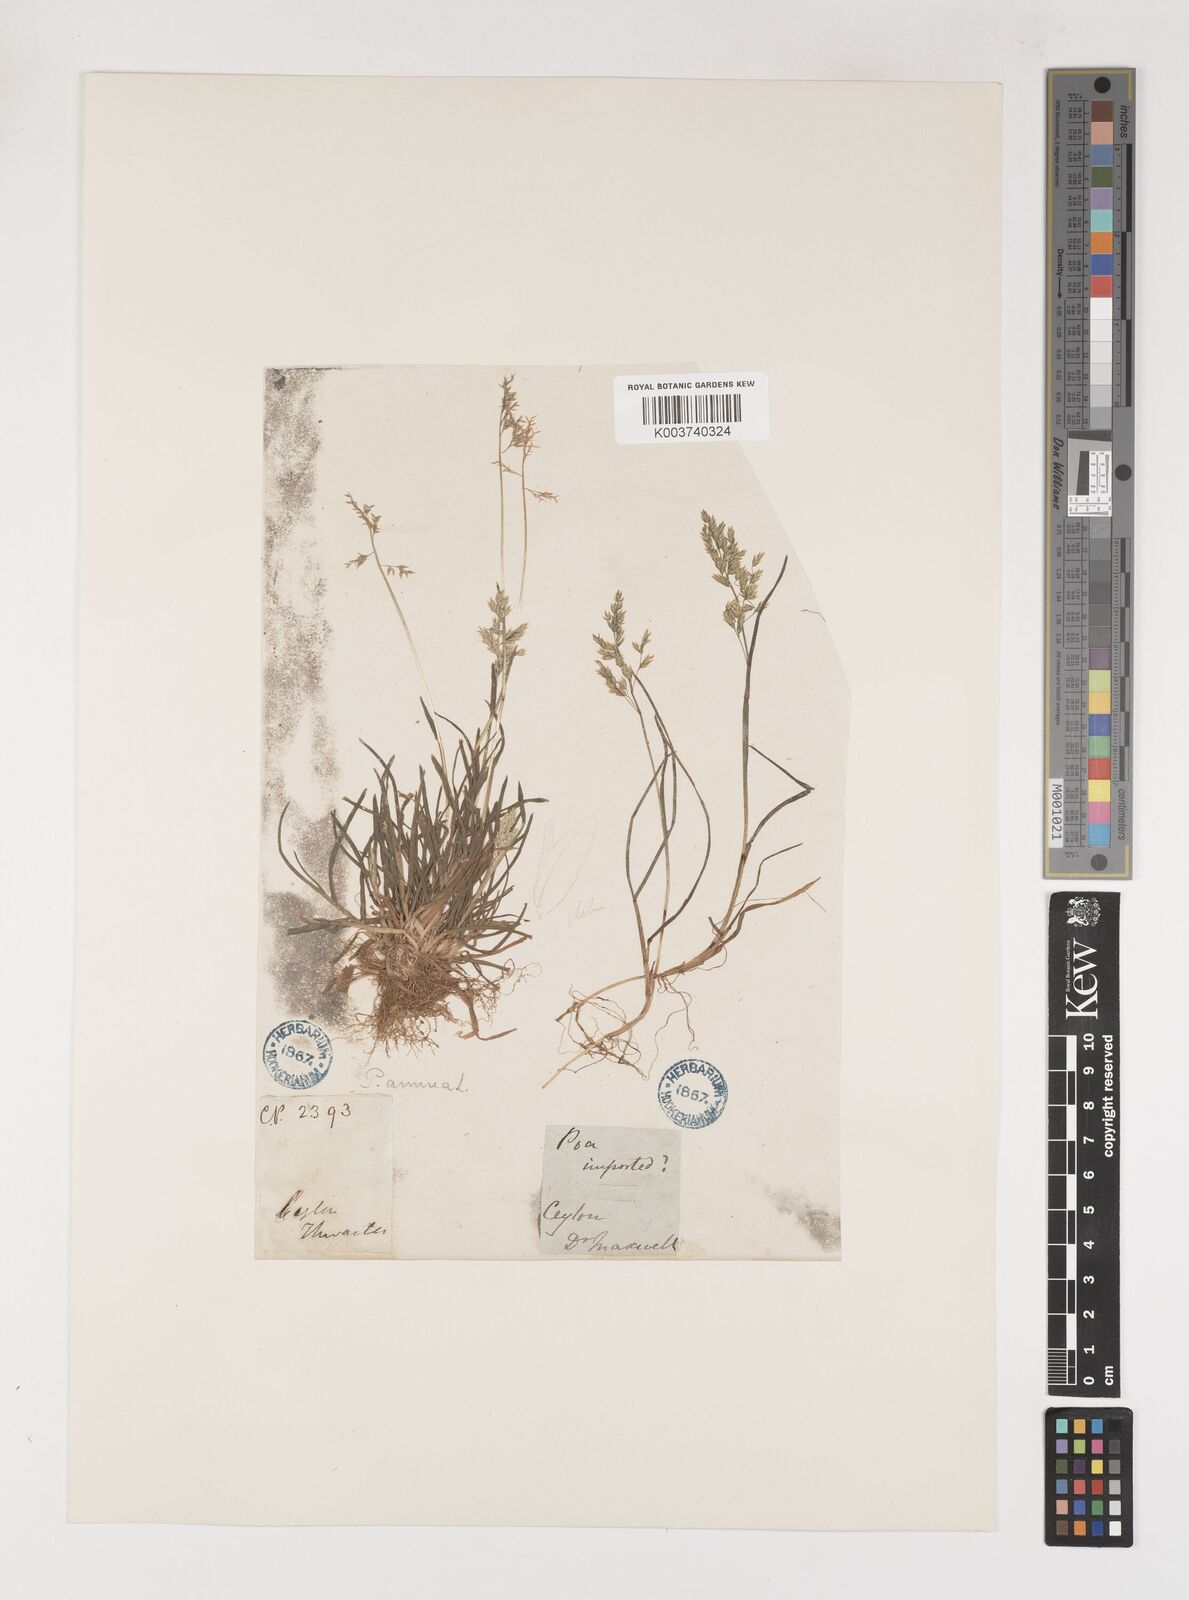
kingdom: Plantae
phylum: Tracheophyta
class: Liliopsida
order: Poales
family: Poaceae
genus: Poa
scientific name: Poa annua
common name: Annual bluegrass
